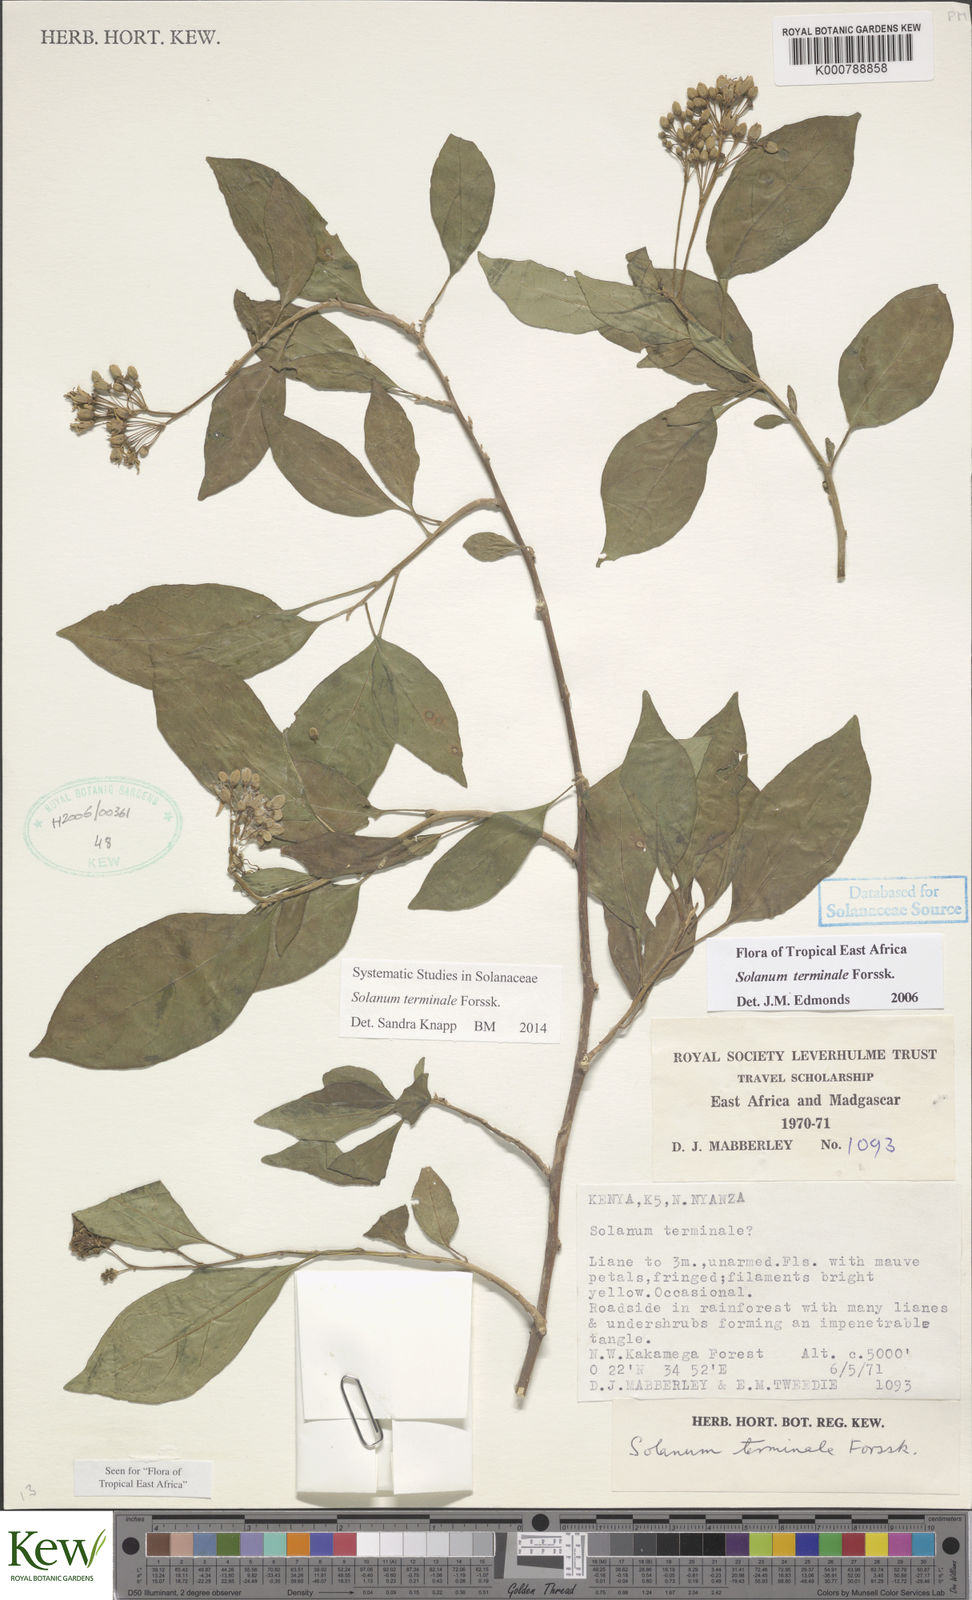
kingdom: Plantae
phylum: Tracheophyta
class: Magnoliopsida
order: Solanales
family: Solanaceae
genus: Solanum
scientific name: Solanum terminale
